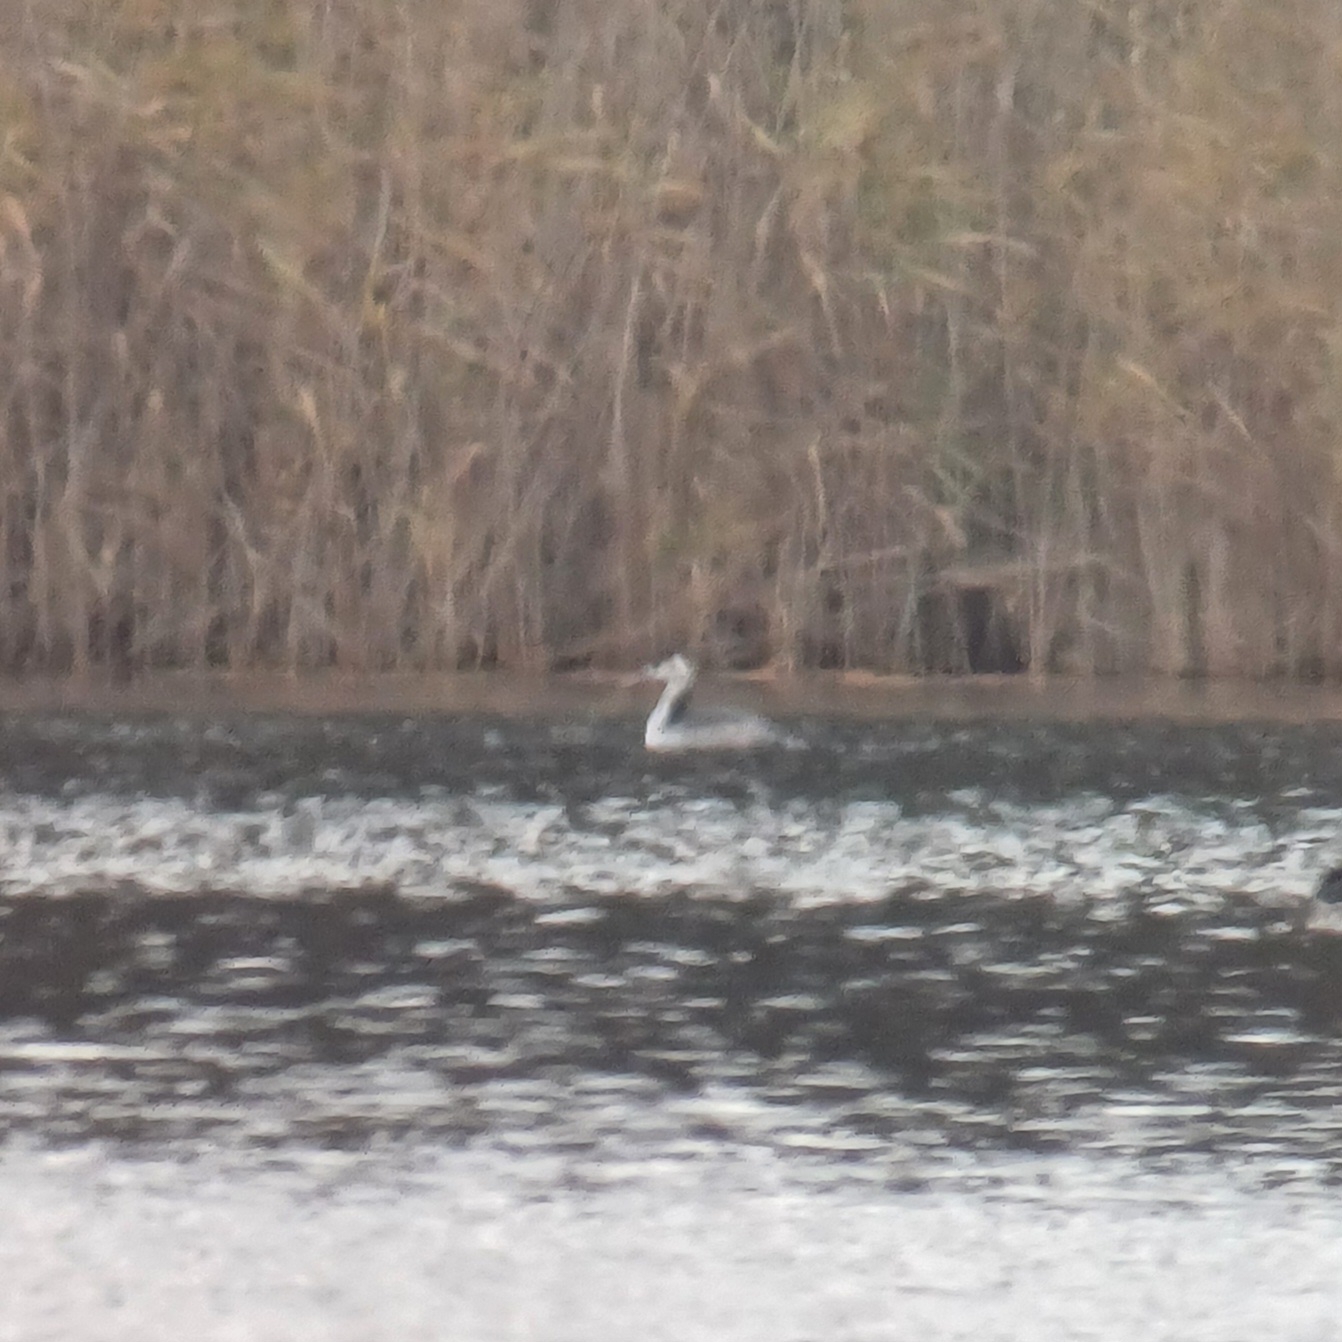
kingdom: Animalia
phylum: Chordata
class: Aves
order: Podicipediformes
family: Podicipedidae
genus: Podiceps
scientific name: Podiceps cristatus
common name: Toppet lappedykker
